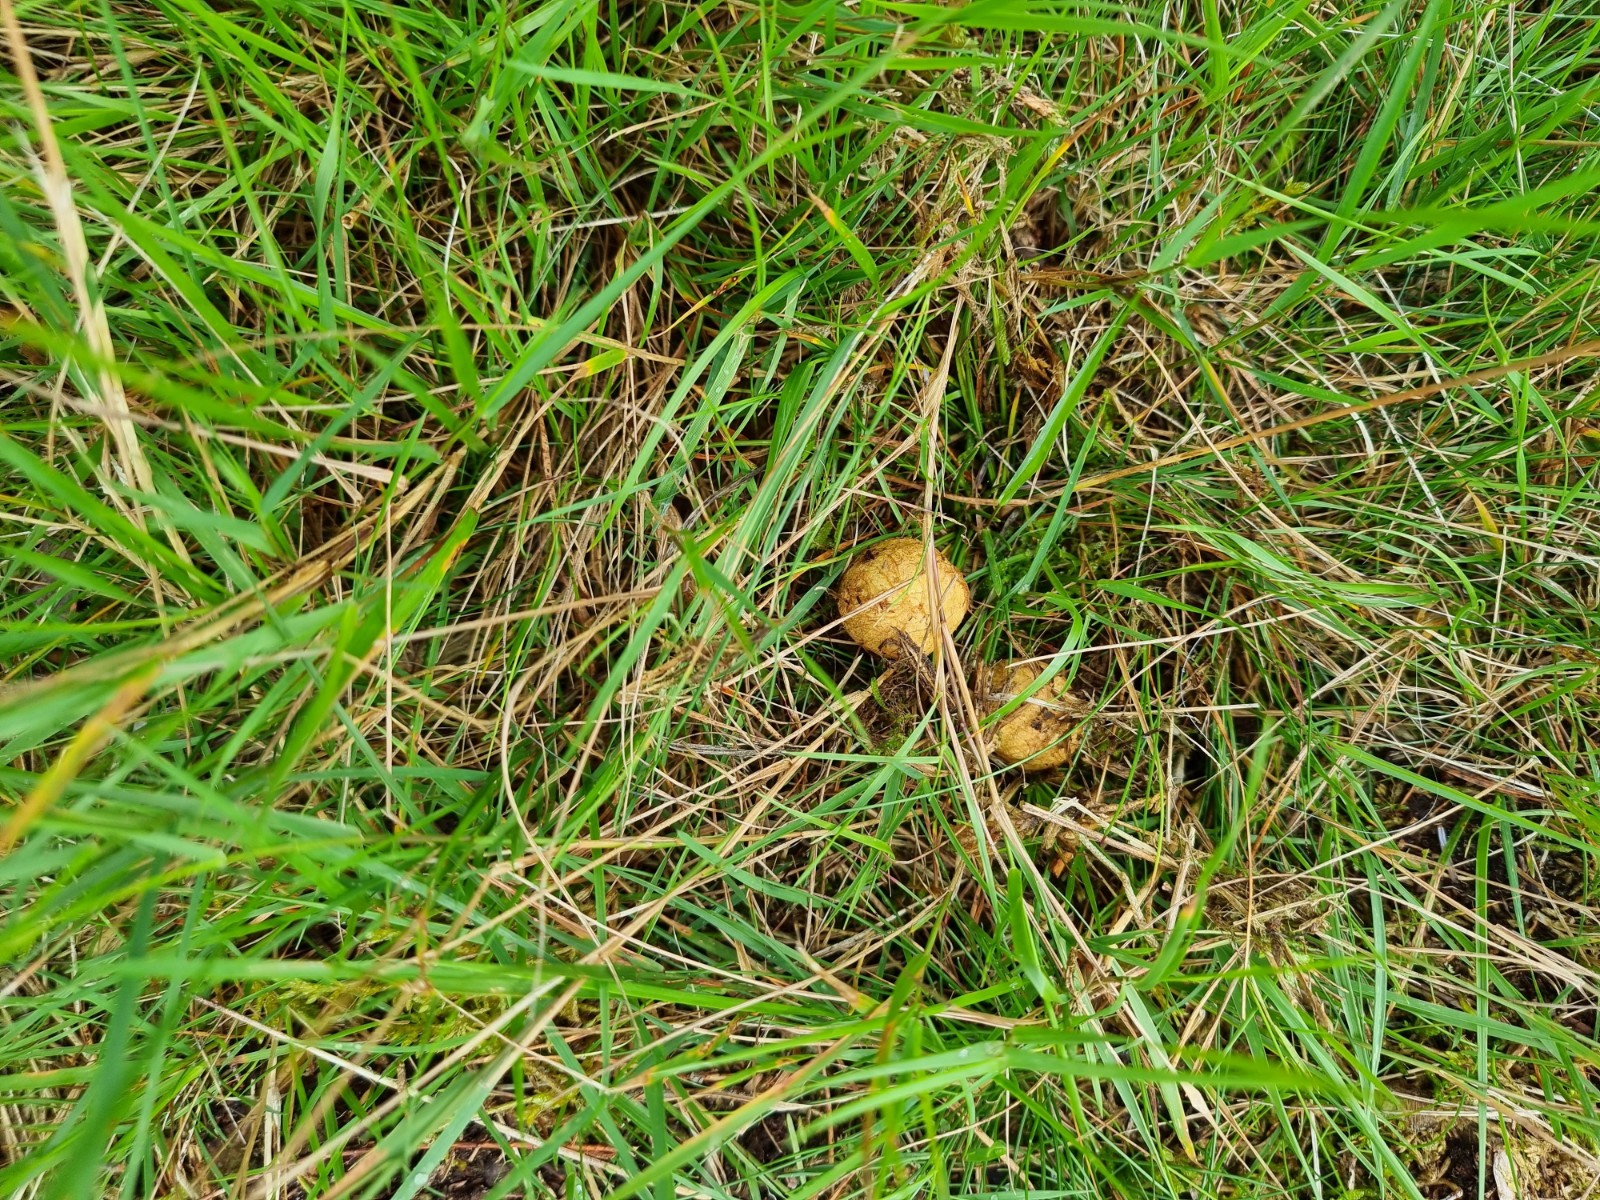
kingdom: Fungi
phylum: Basidiomycota
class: Agaricomycetes
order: Boletales
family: Rhizopogonaceae
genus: Rhizopogon
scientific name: Rhizopogon obtextus
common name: gul skægtrøffel
